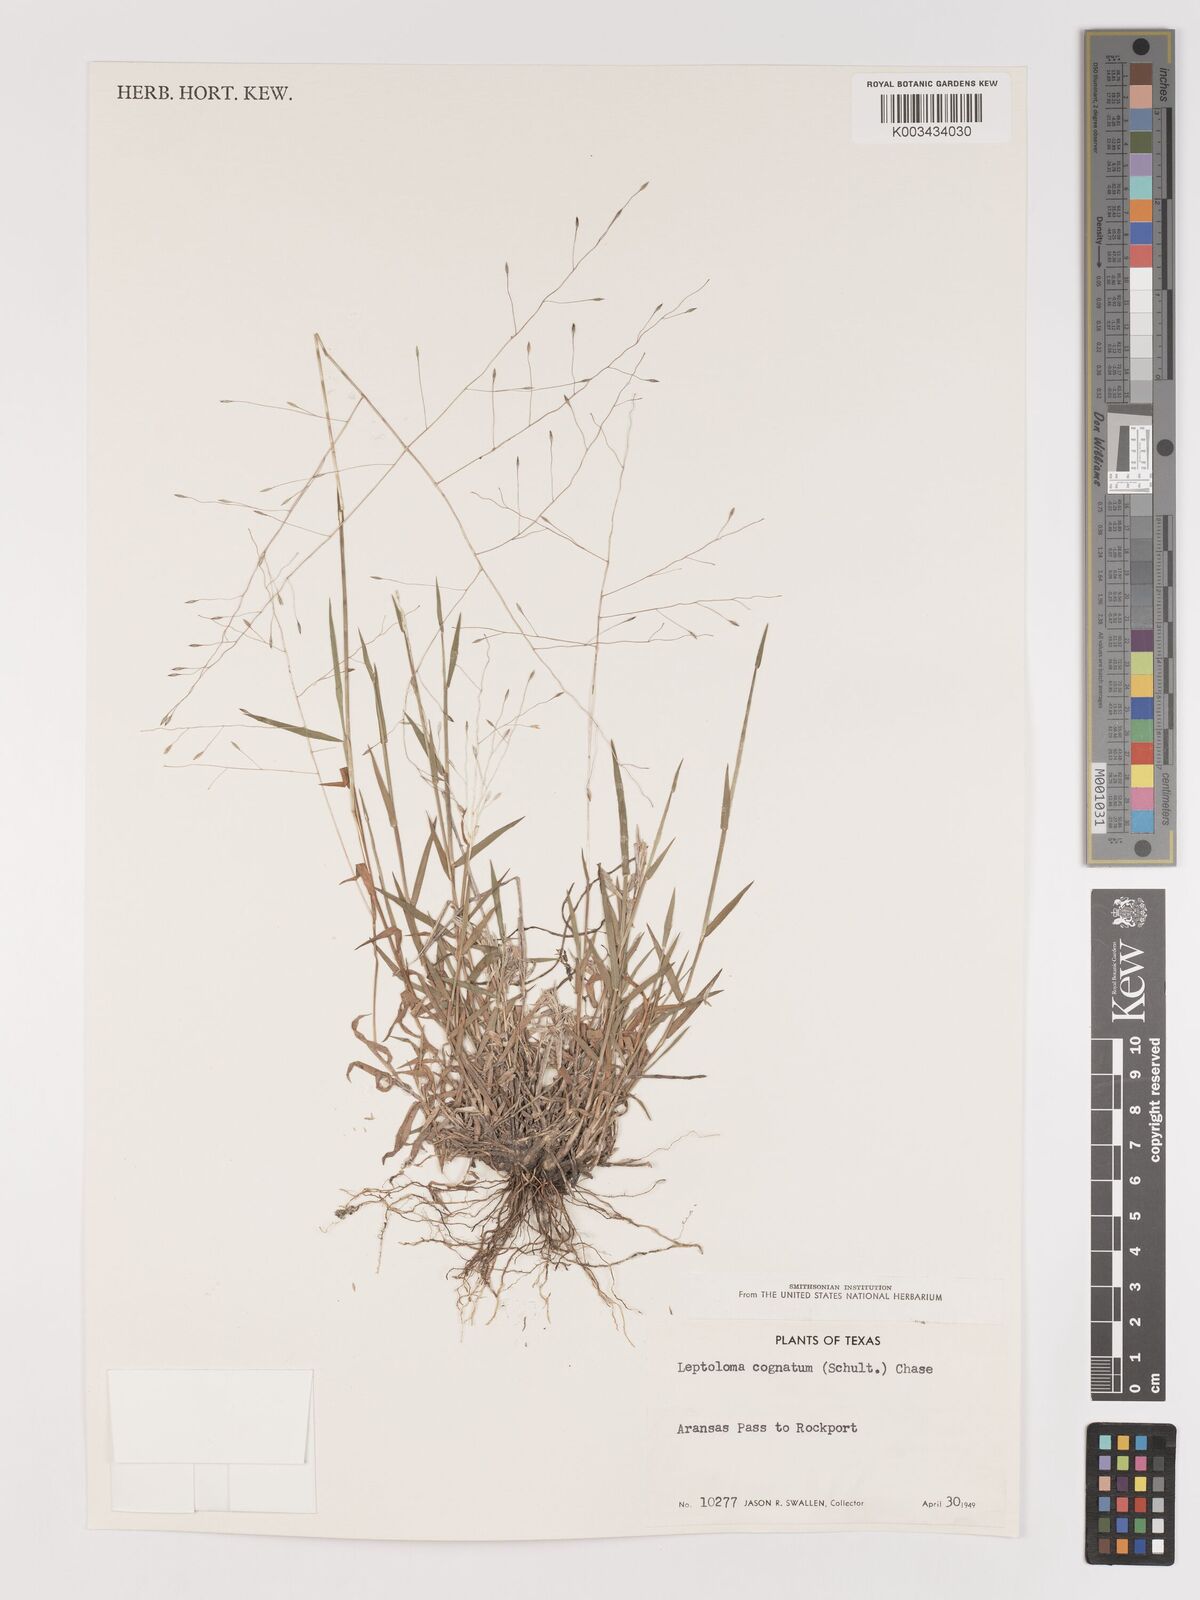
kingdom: Plantae
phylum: Tracheophyta
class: Liliopsida
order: Poales
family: Poaceae
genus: Digitaria
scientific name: Digitaria cognata
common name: Fall witchgrass
